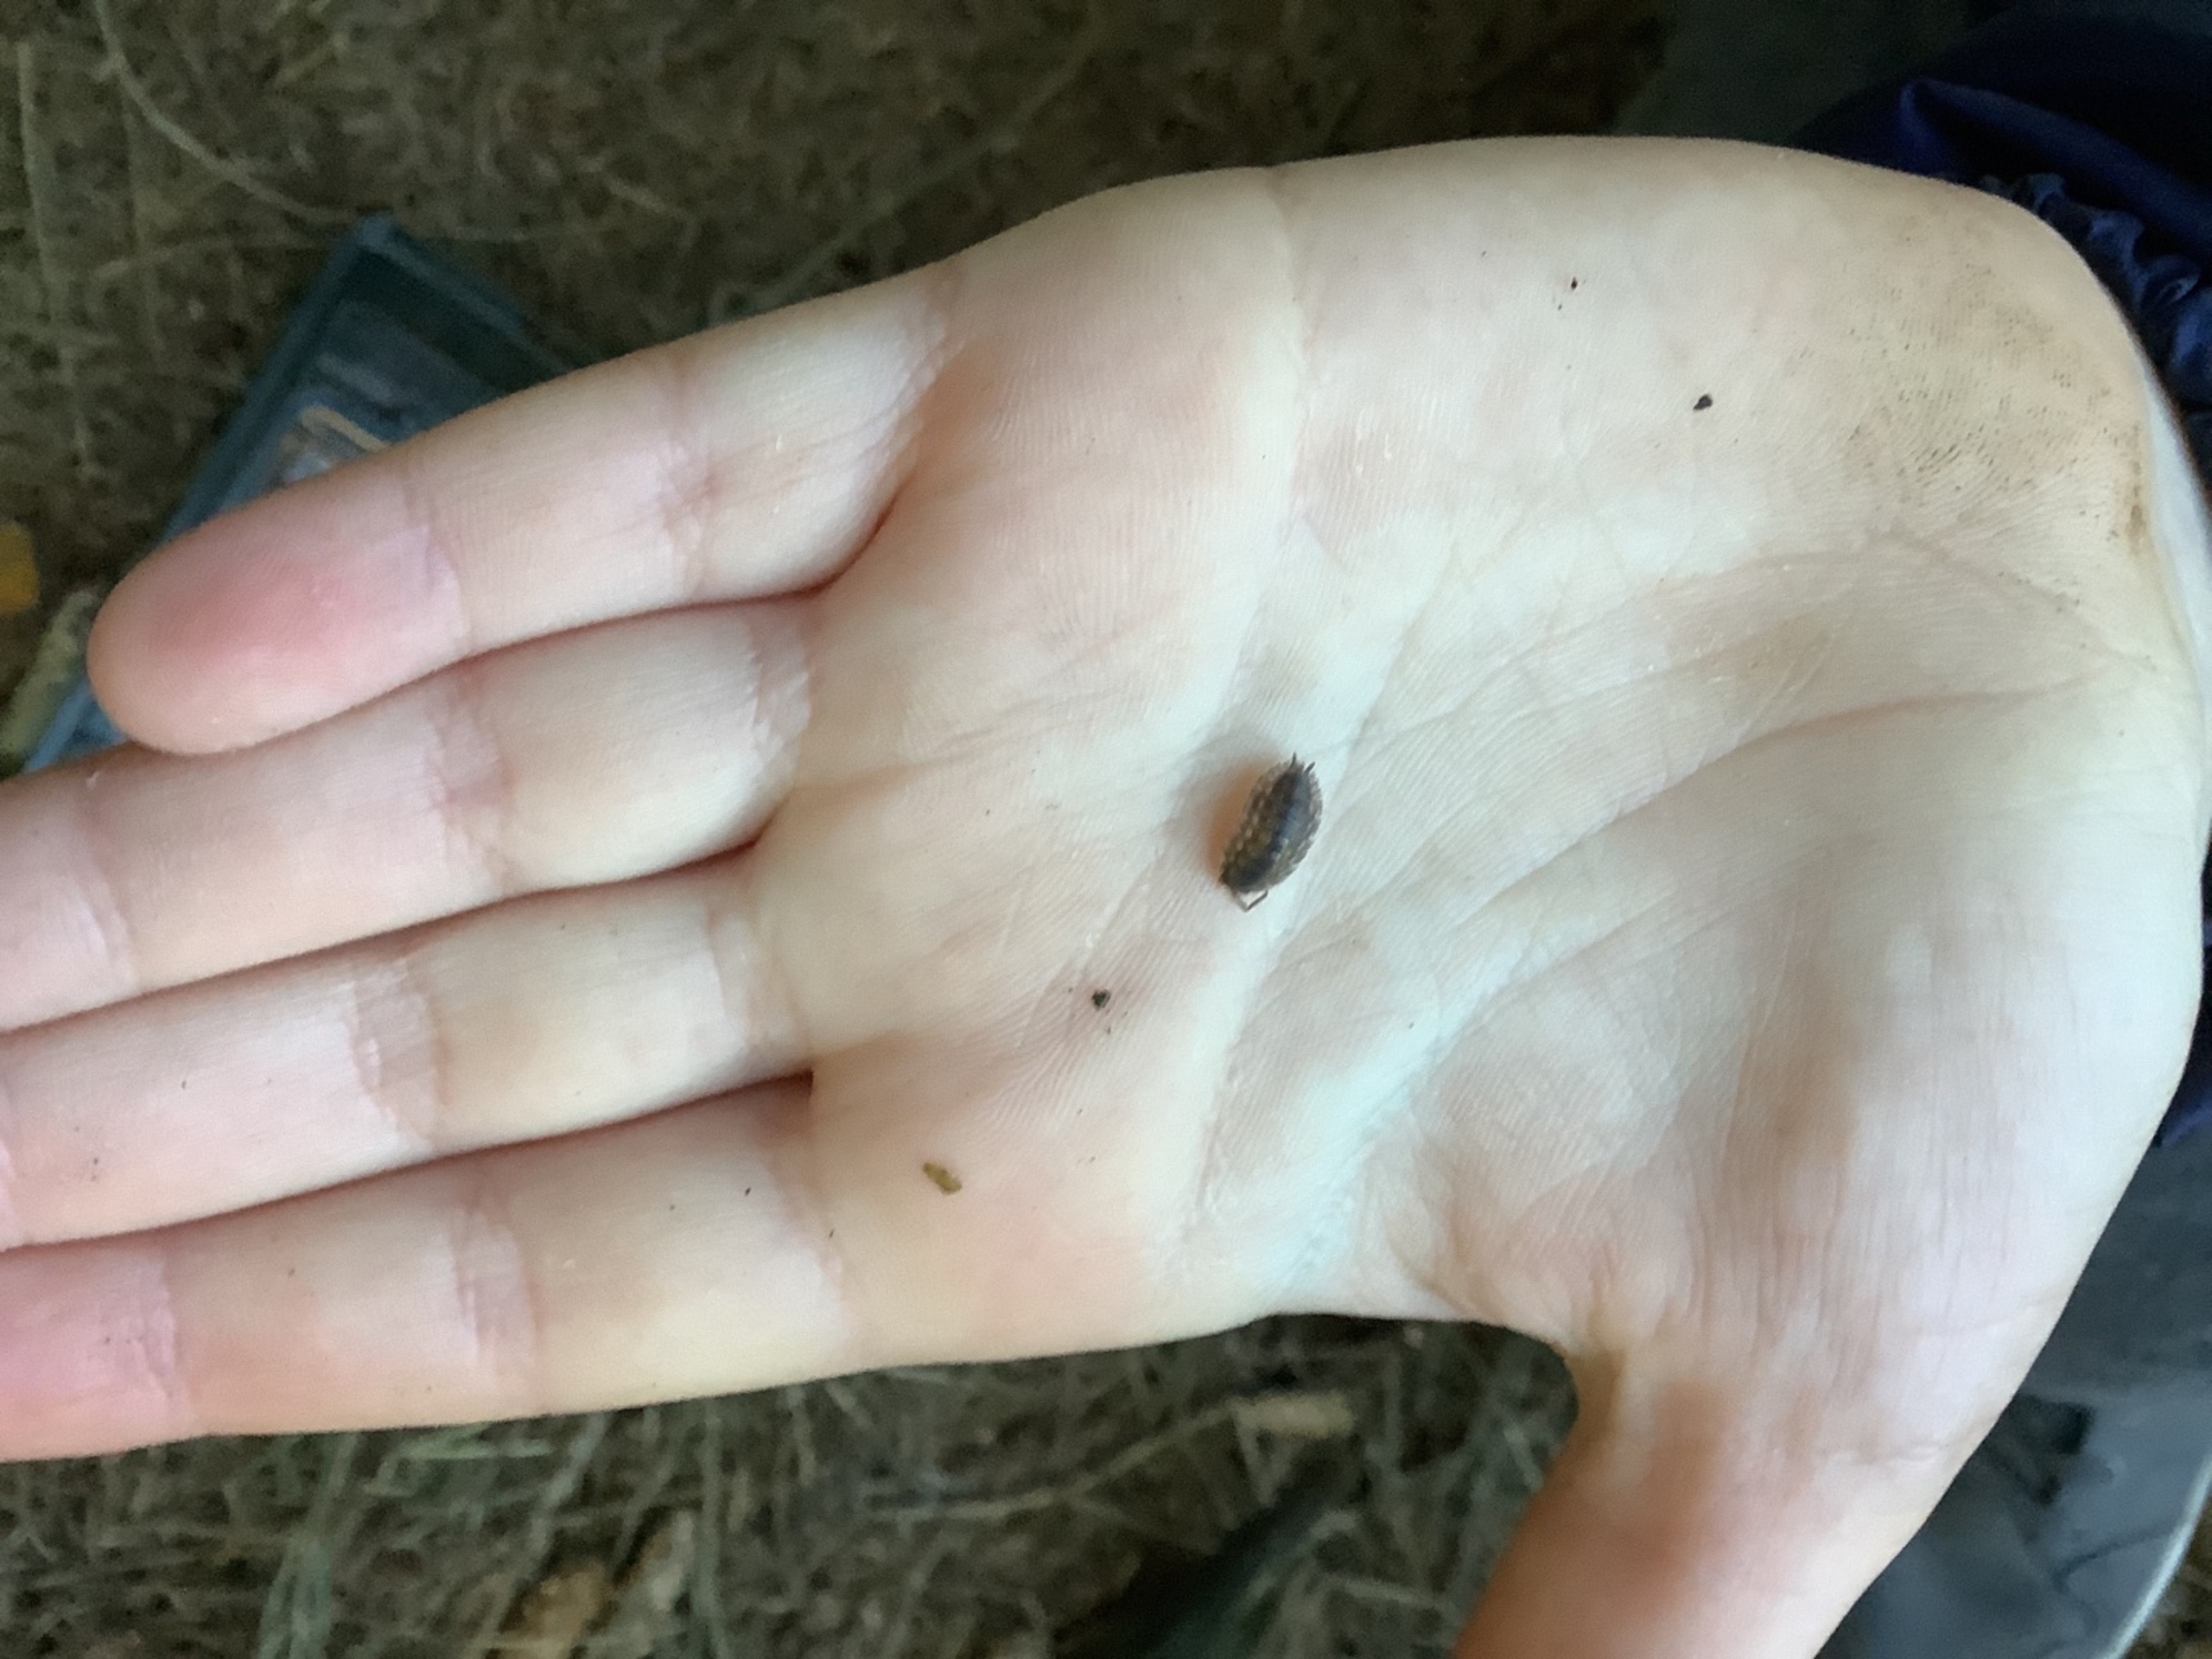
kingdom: Animalia
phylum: Arthropoda
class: Malacostraca
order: Isopoda
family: Oniscidae
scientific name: Oniscidae
